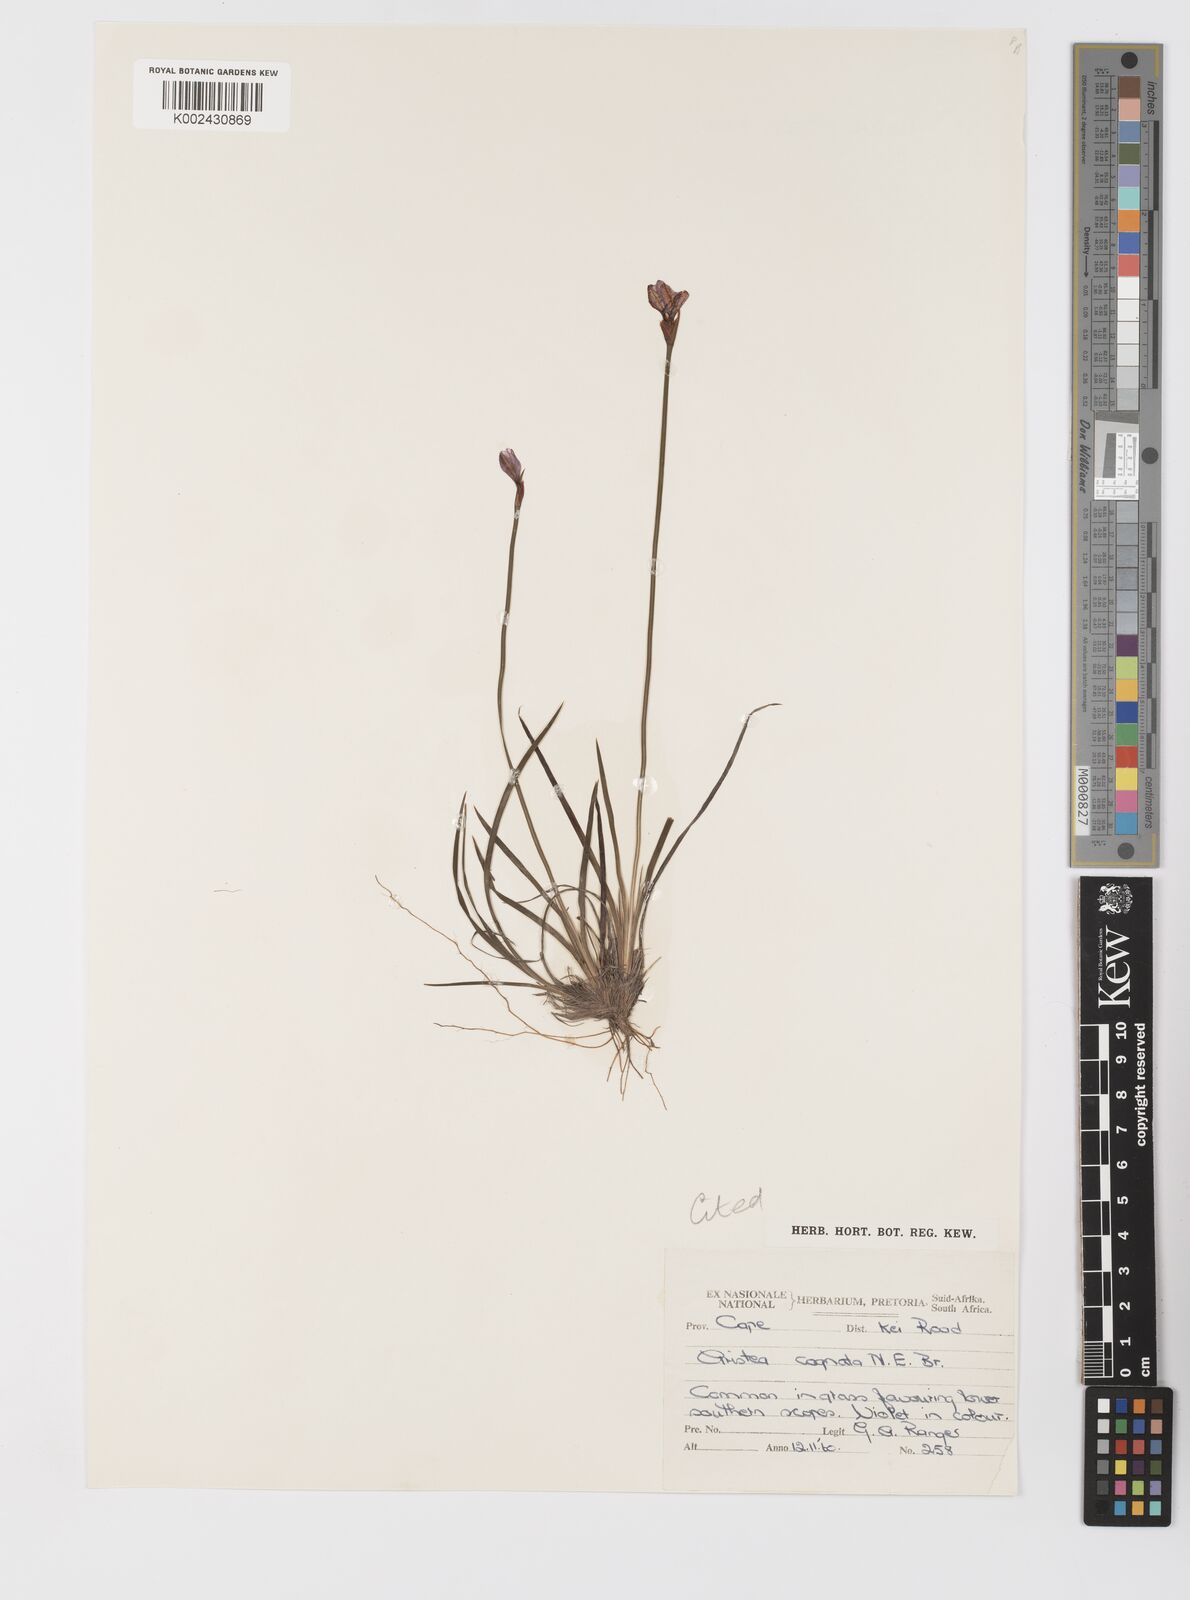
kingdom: Plantae
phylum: Tracheophyta
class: Liliopsida
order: Asparagales
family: Iridaceae
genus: Aristea
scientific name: Aristea abyssinica
